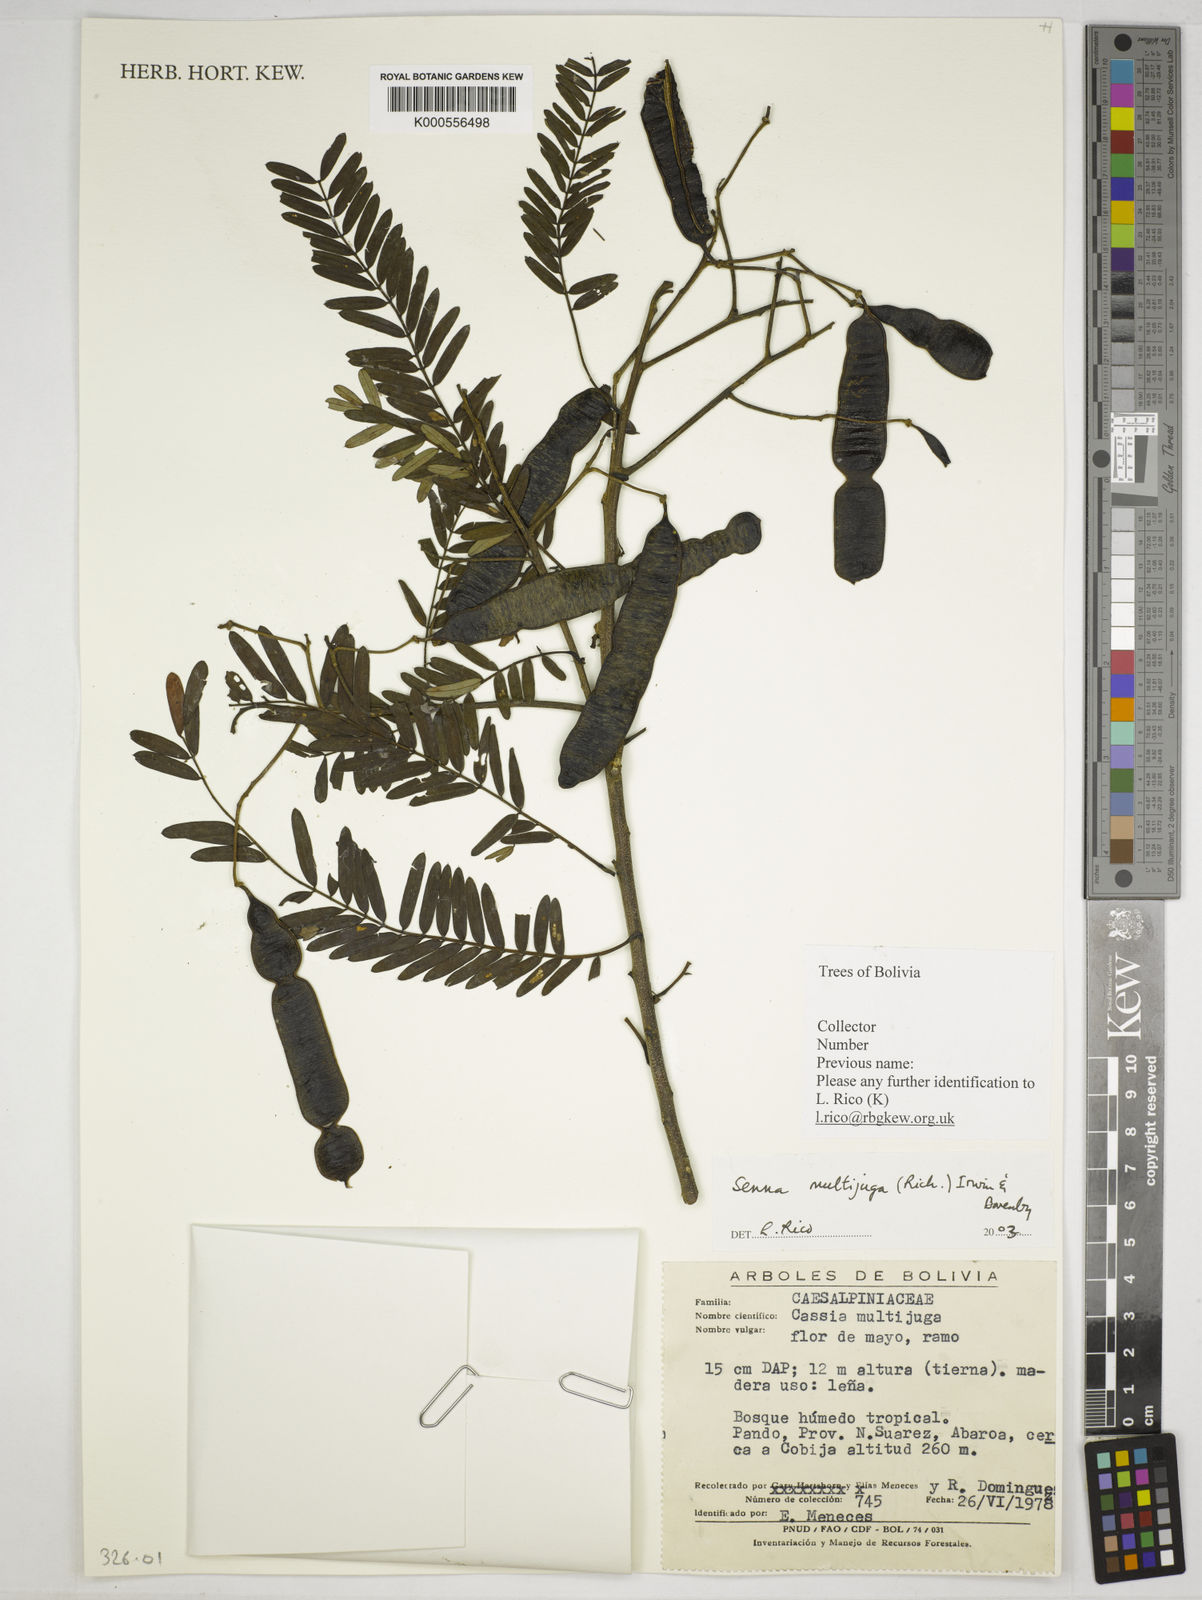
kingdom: Plantae
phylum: Tracheophyta
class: Magnoliopsida
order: Fabales
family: Fabaceae
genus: Senna
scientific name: Senna multijuga
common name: False sicklepod
